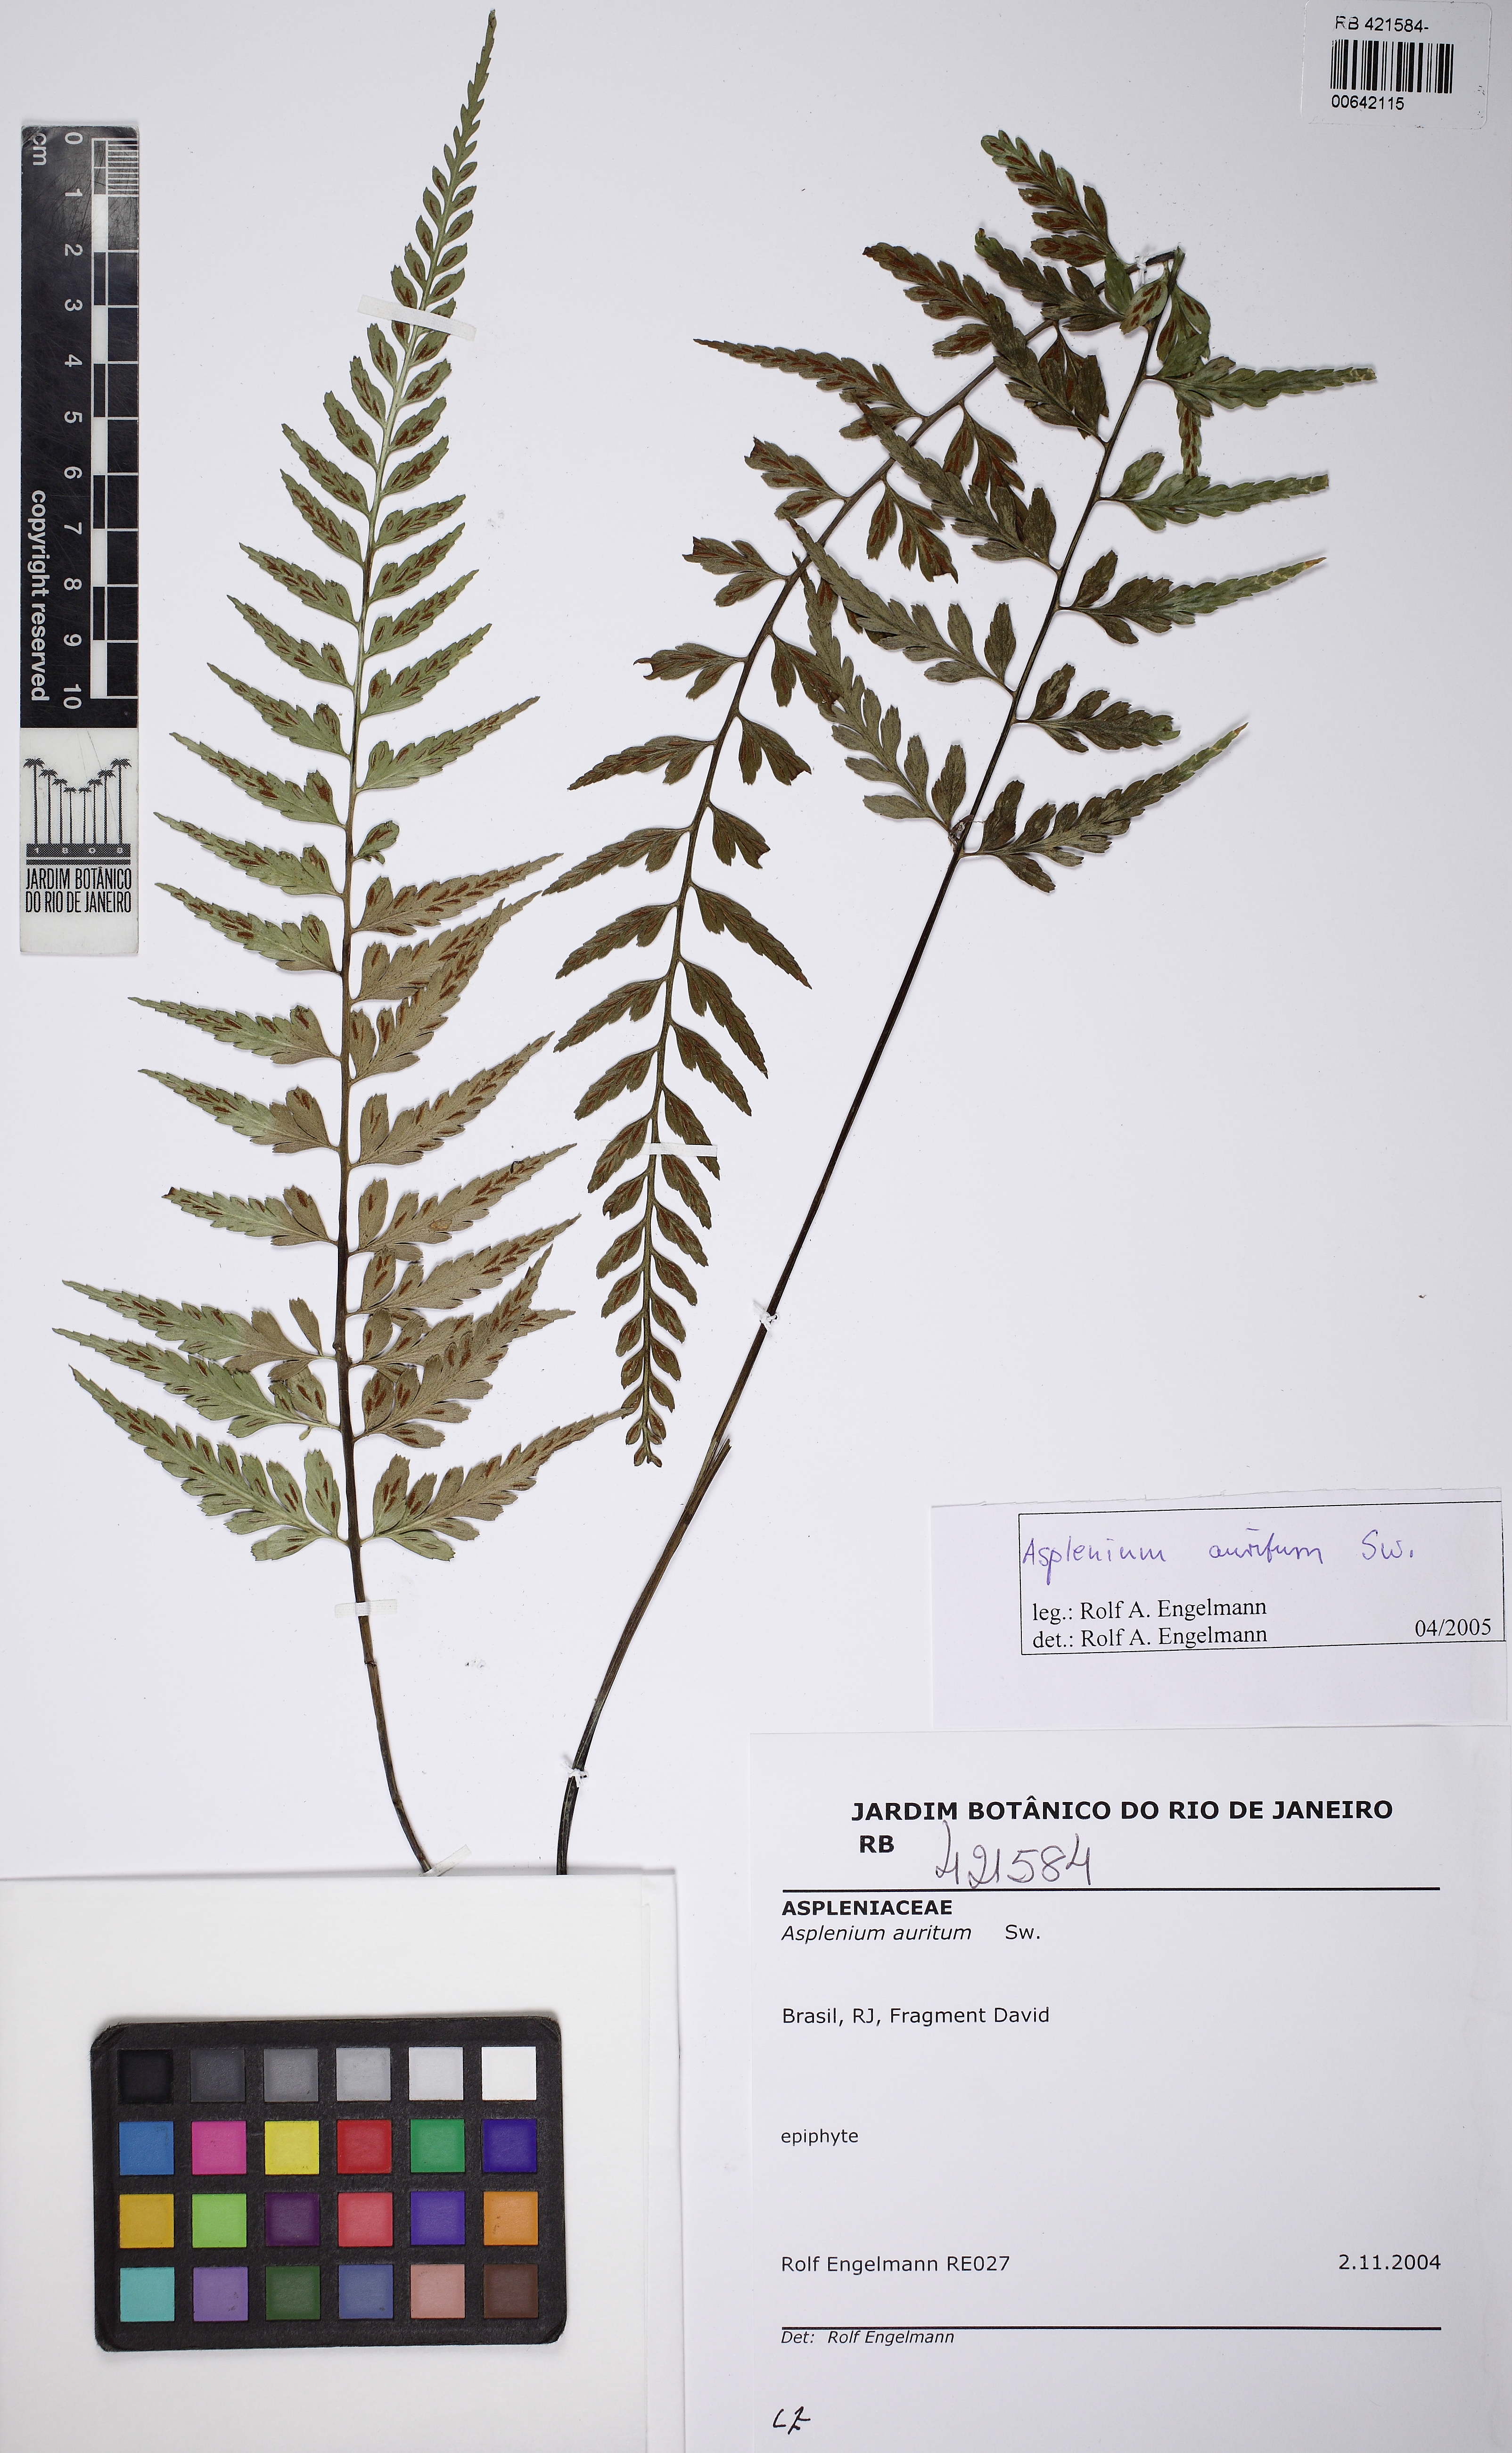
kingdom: Plantae
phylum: Tracheophyta
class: Polypodiopsida
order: Polypodiales
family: Aspleniaceae
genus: Asplenium
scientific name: Asplenium auritum
